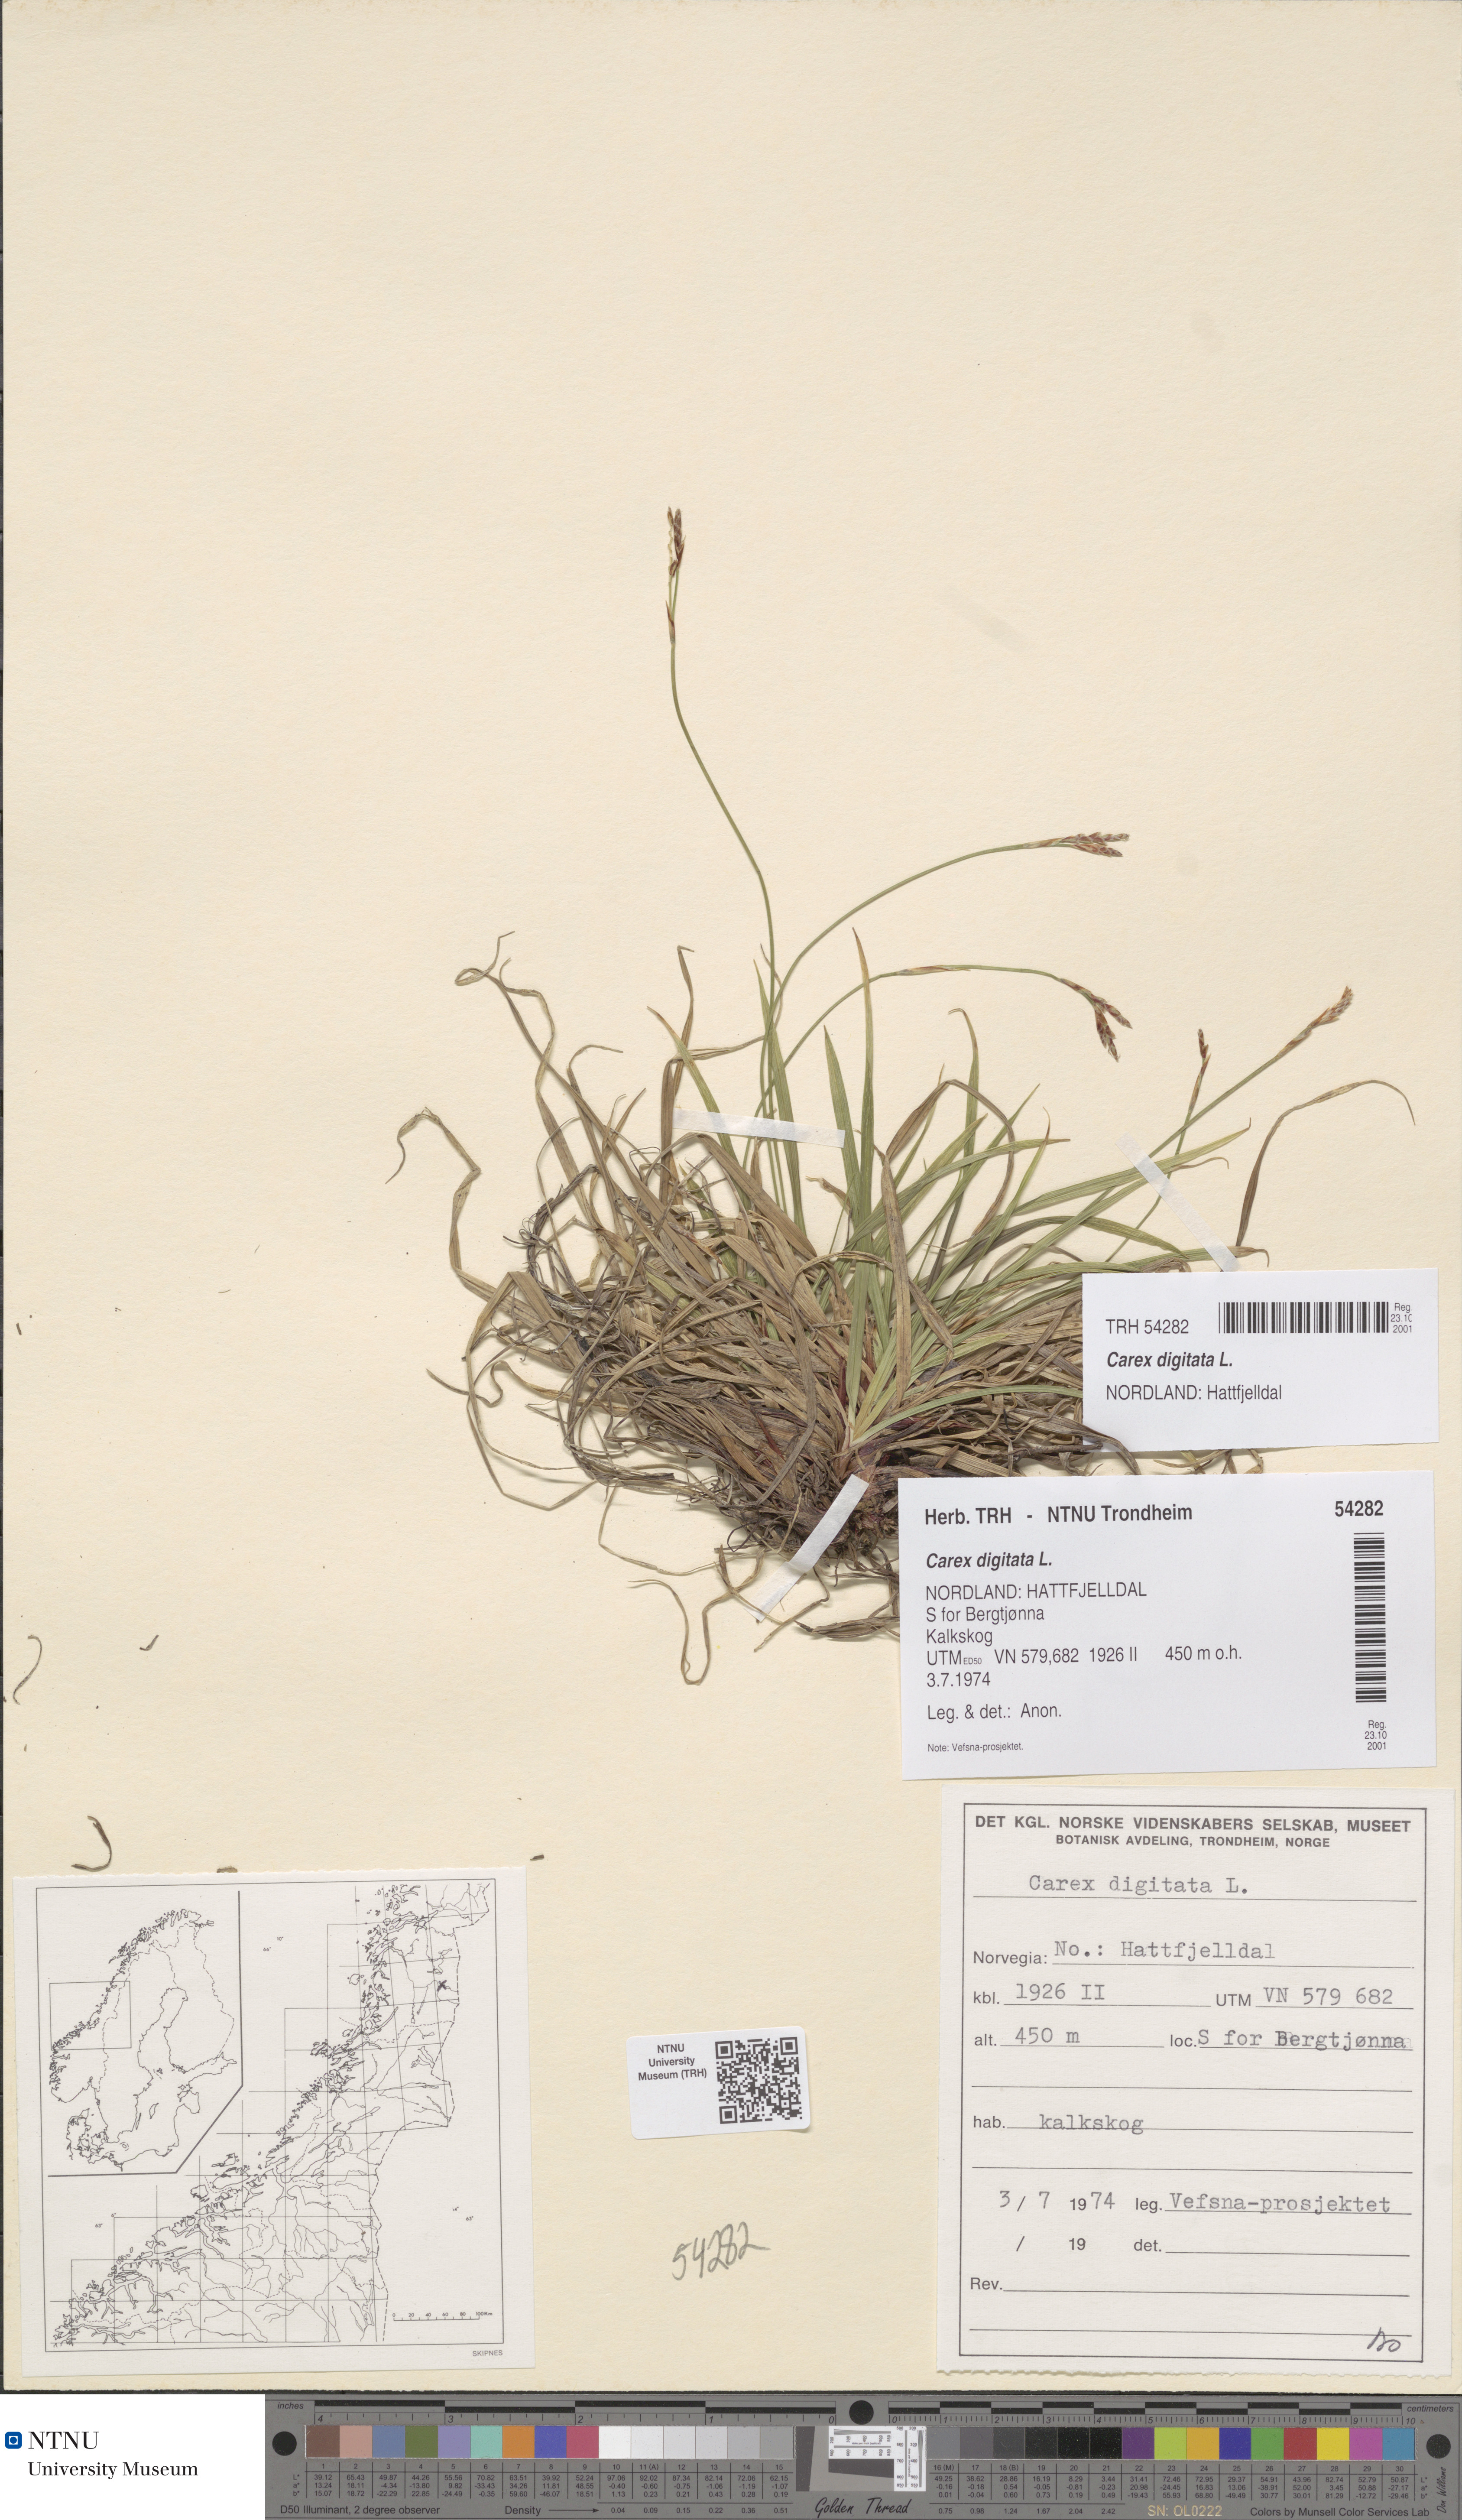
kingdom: Plantae
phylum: Tracheophyta
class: Liliopsida
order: Poales
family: Cyperaceae
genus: Carex
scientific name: Carex digitata
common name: Fingered sedge
